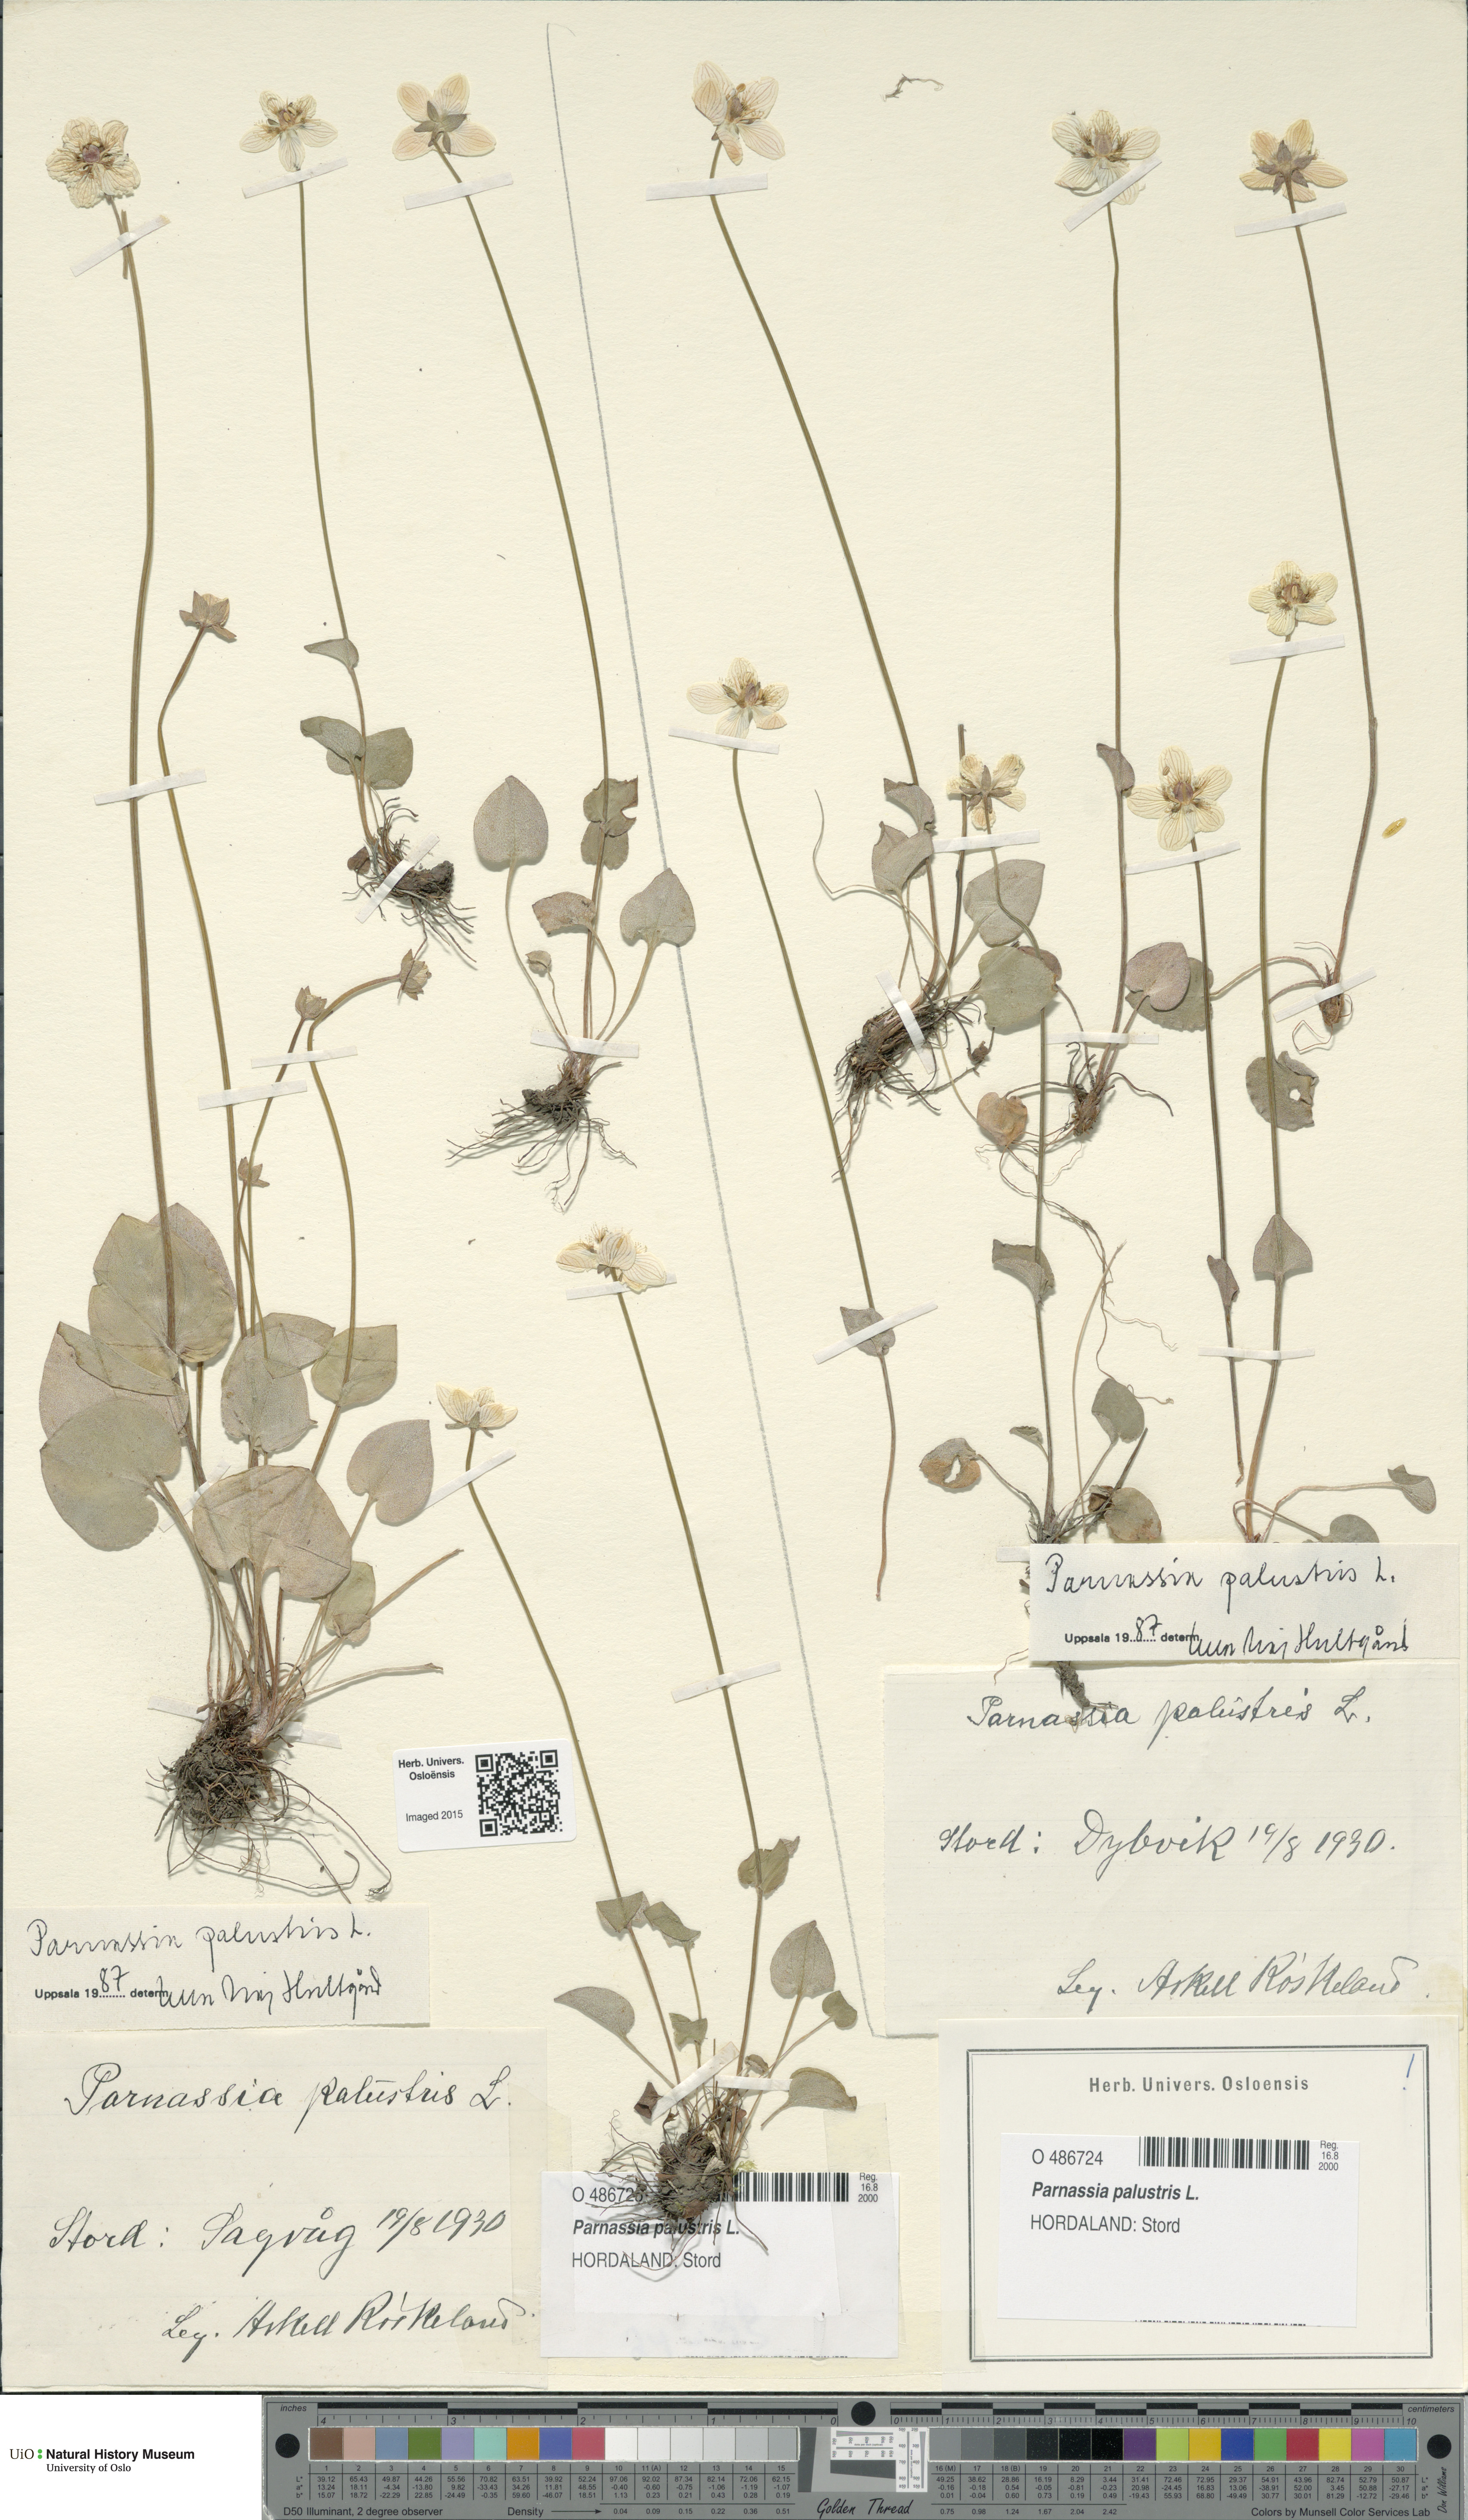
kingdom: Plantae
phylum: Tracheophyta
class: Magnoliopsida
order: Celastrales
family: Parnassiaceae
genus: Parnassia
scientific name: Parnassia palustris
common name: Grass-of-parnassus
